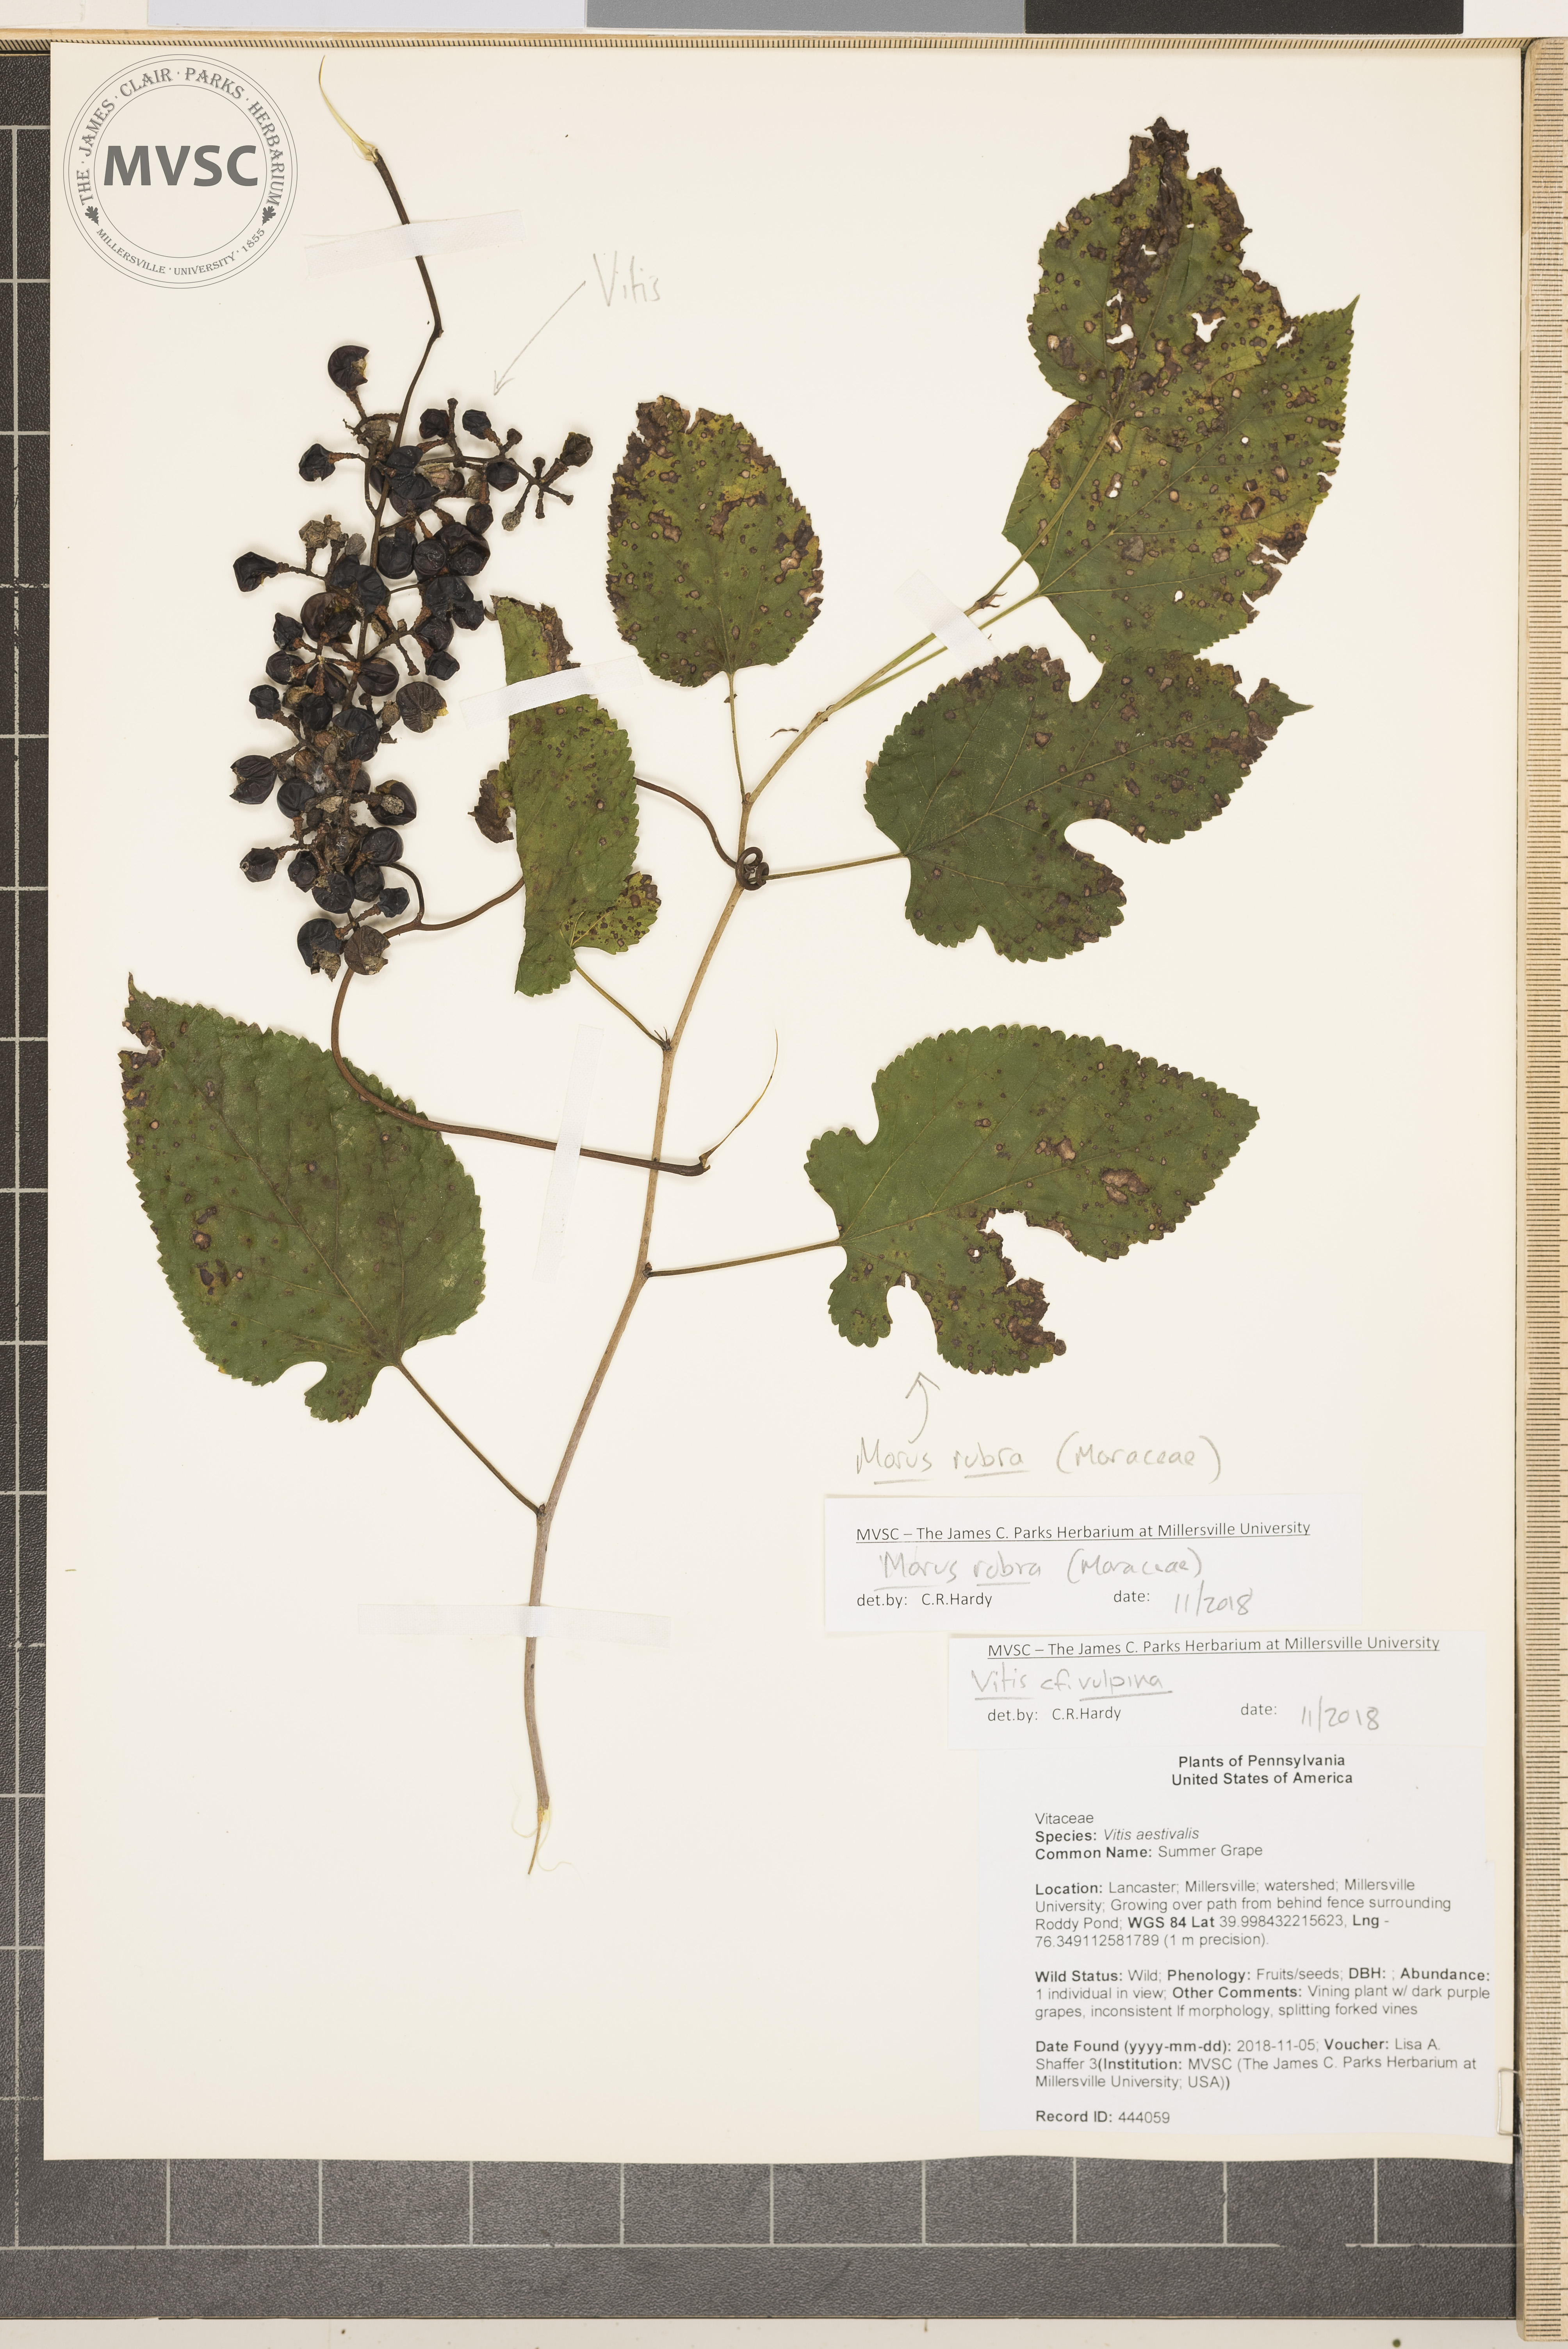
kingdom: Plantae
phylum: Tracheophyta
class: Magnoliopsida
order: Rosales
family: Moraceae
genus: Morus
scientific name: Morus alba
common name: Mulberry
